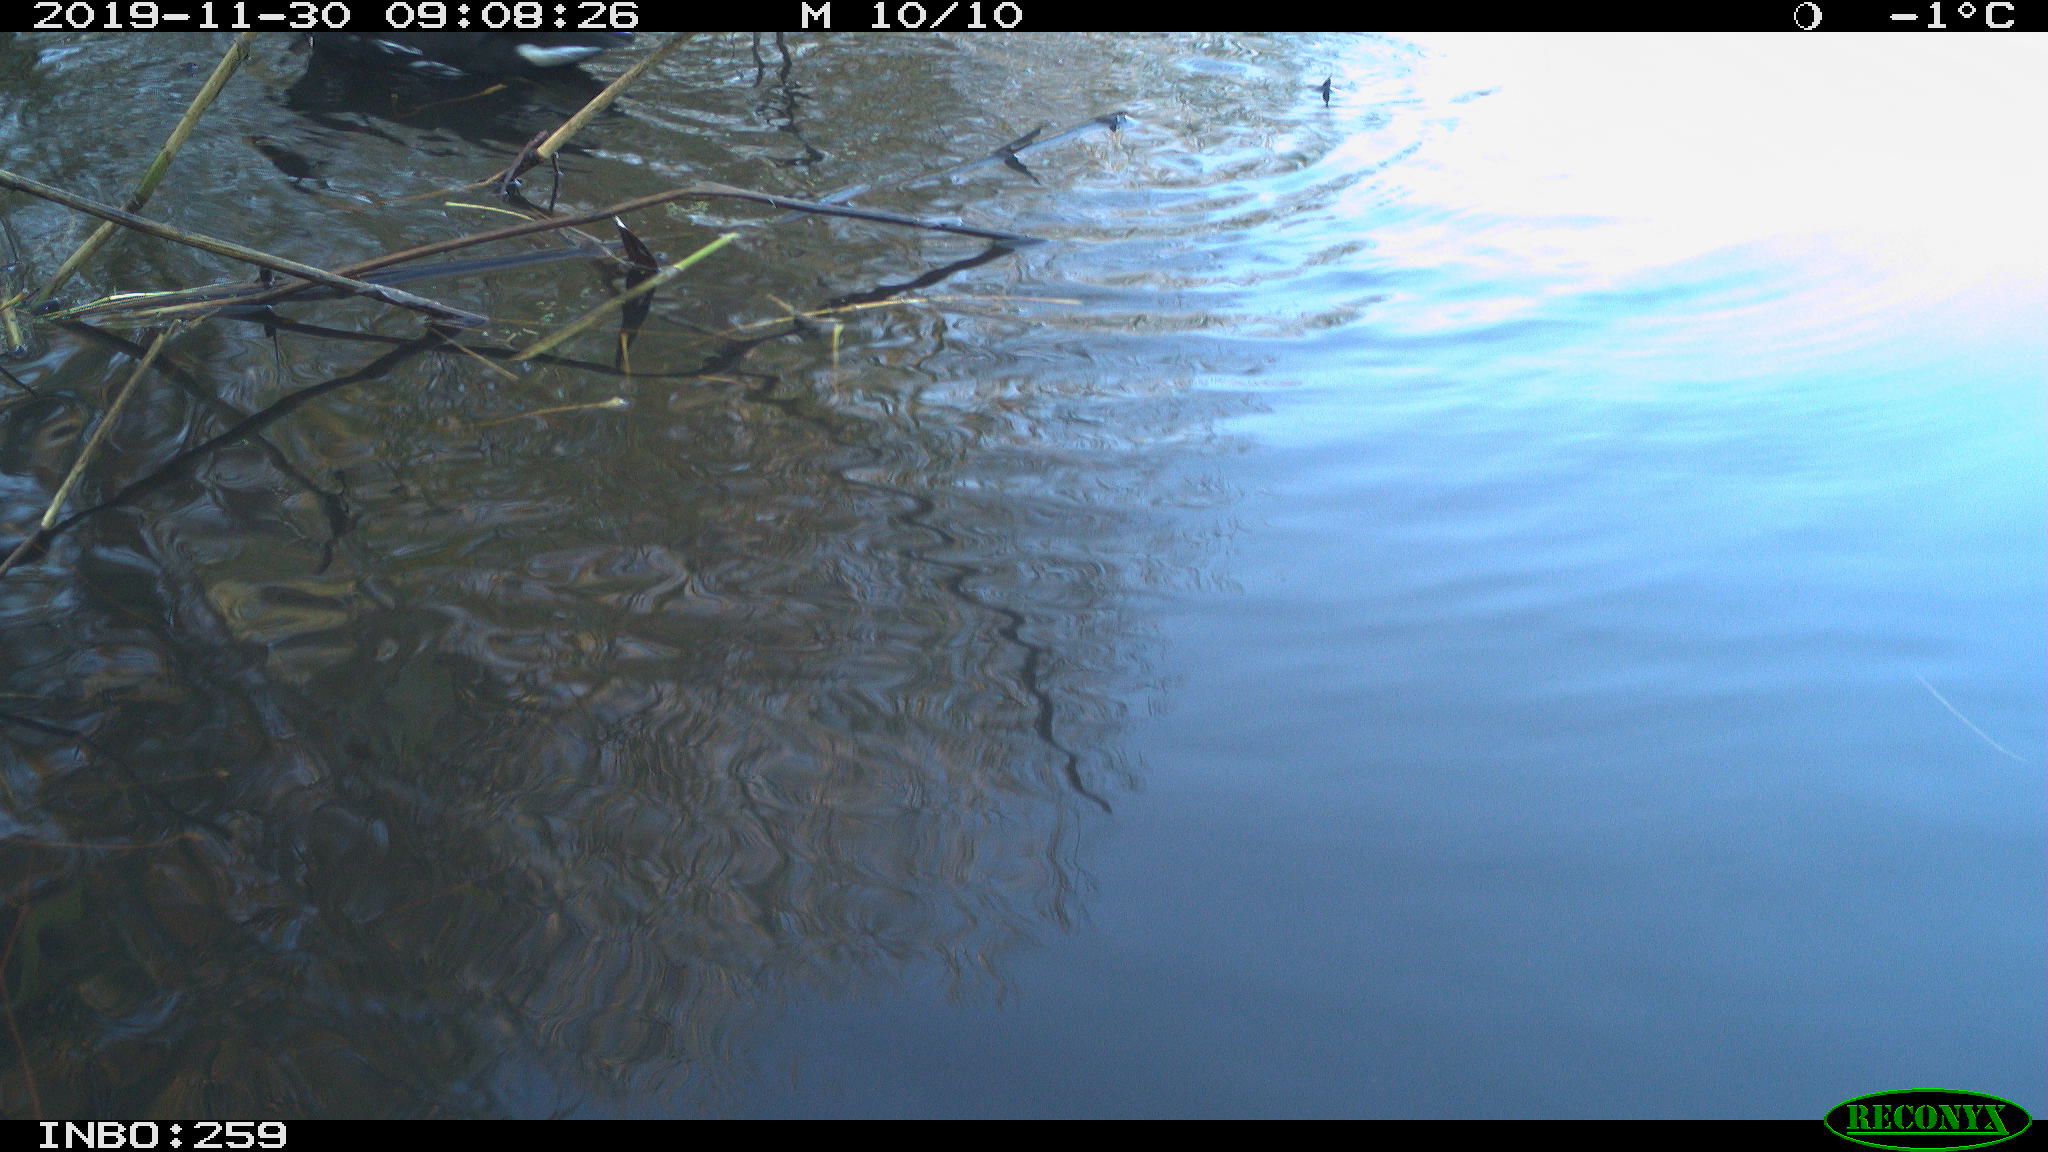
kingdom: Animalia
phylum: Chordata
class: Aves
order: Gruiformes
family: Rallidae
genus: Gallinula
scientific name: Gallinula chloropus
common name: Common moorhen
